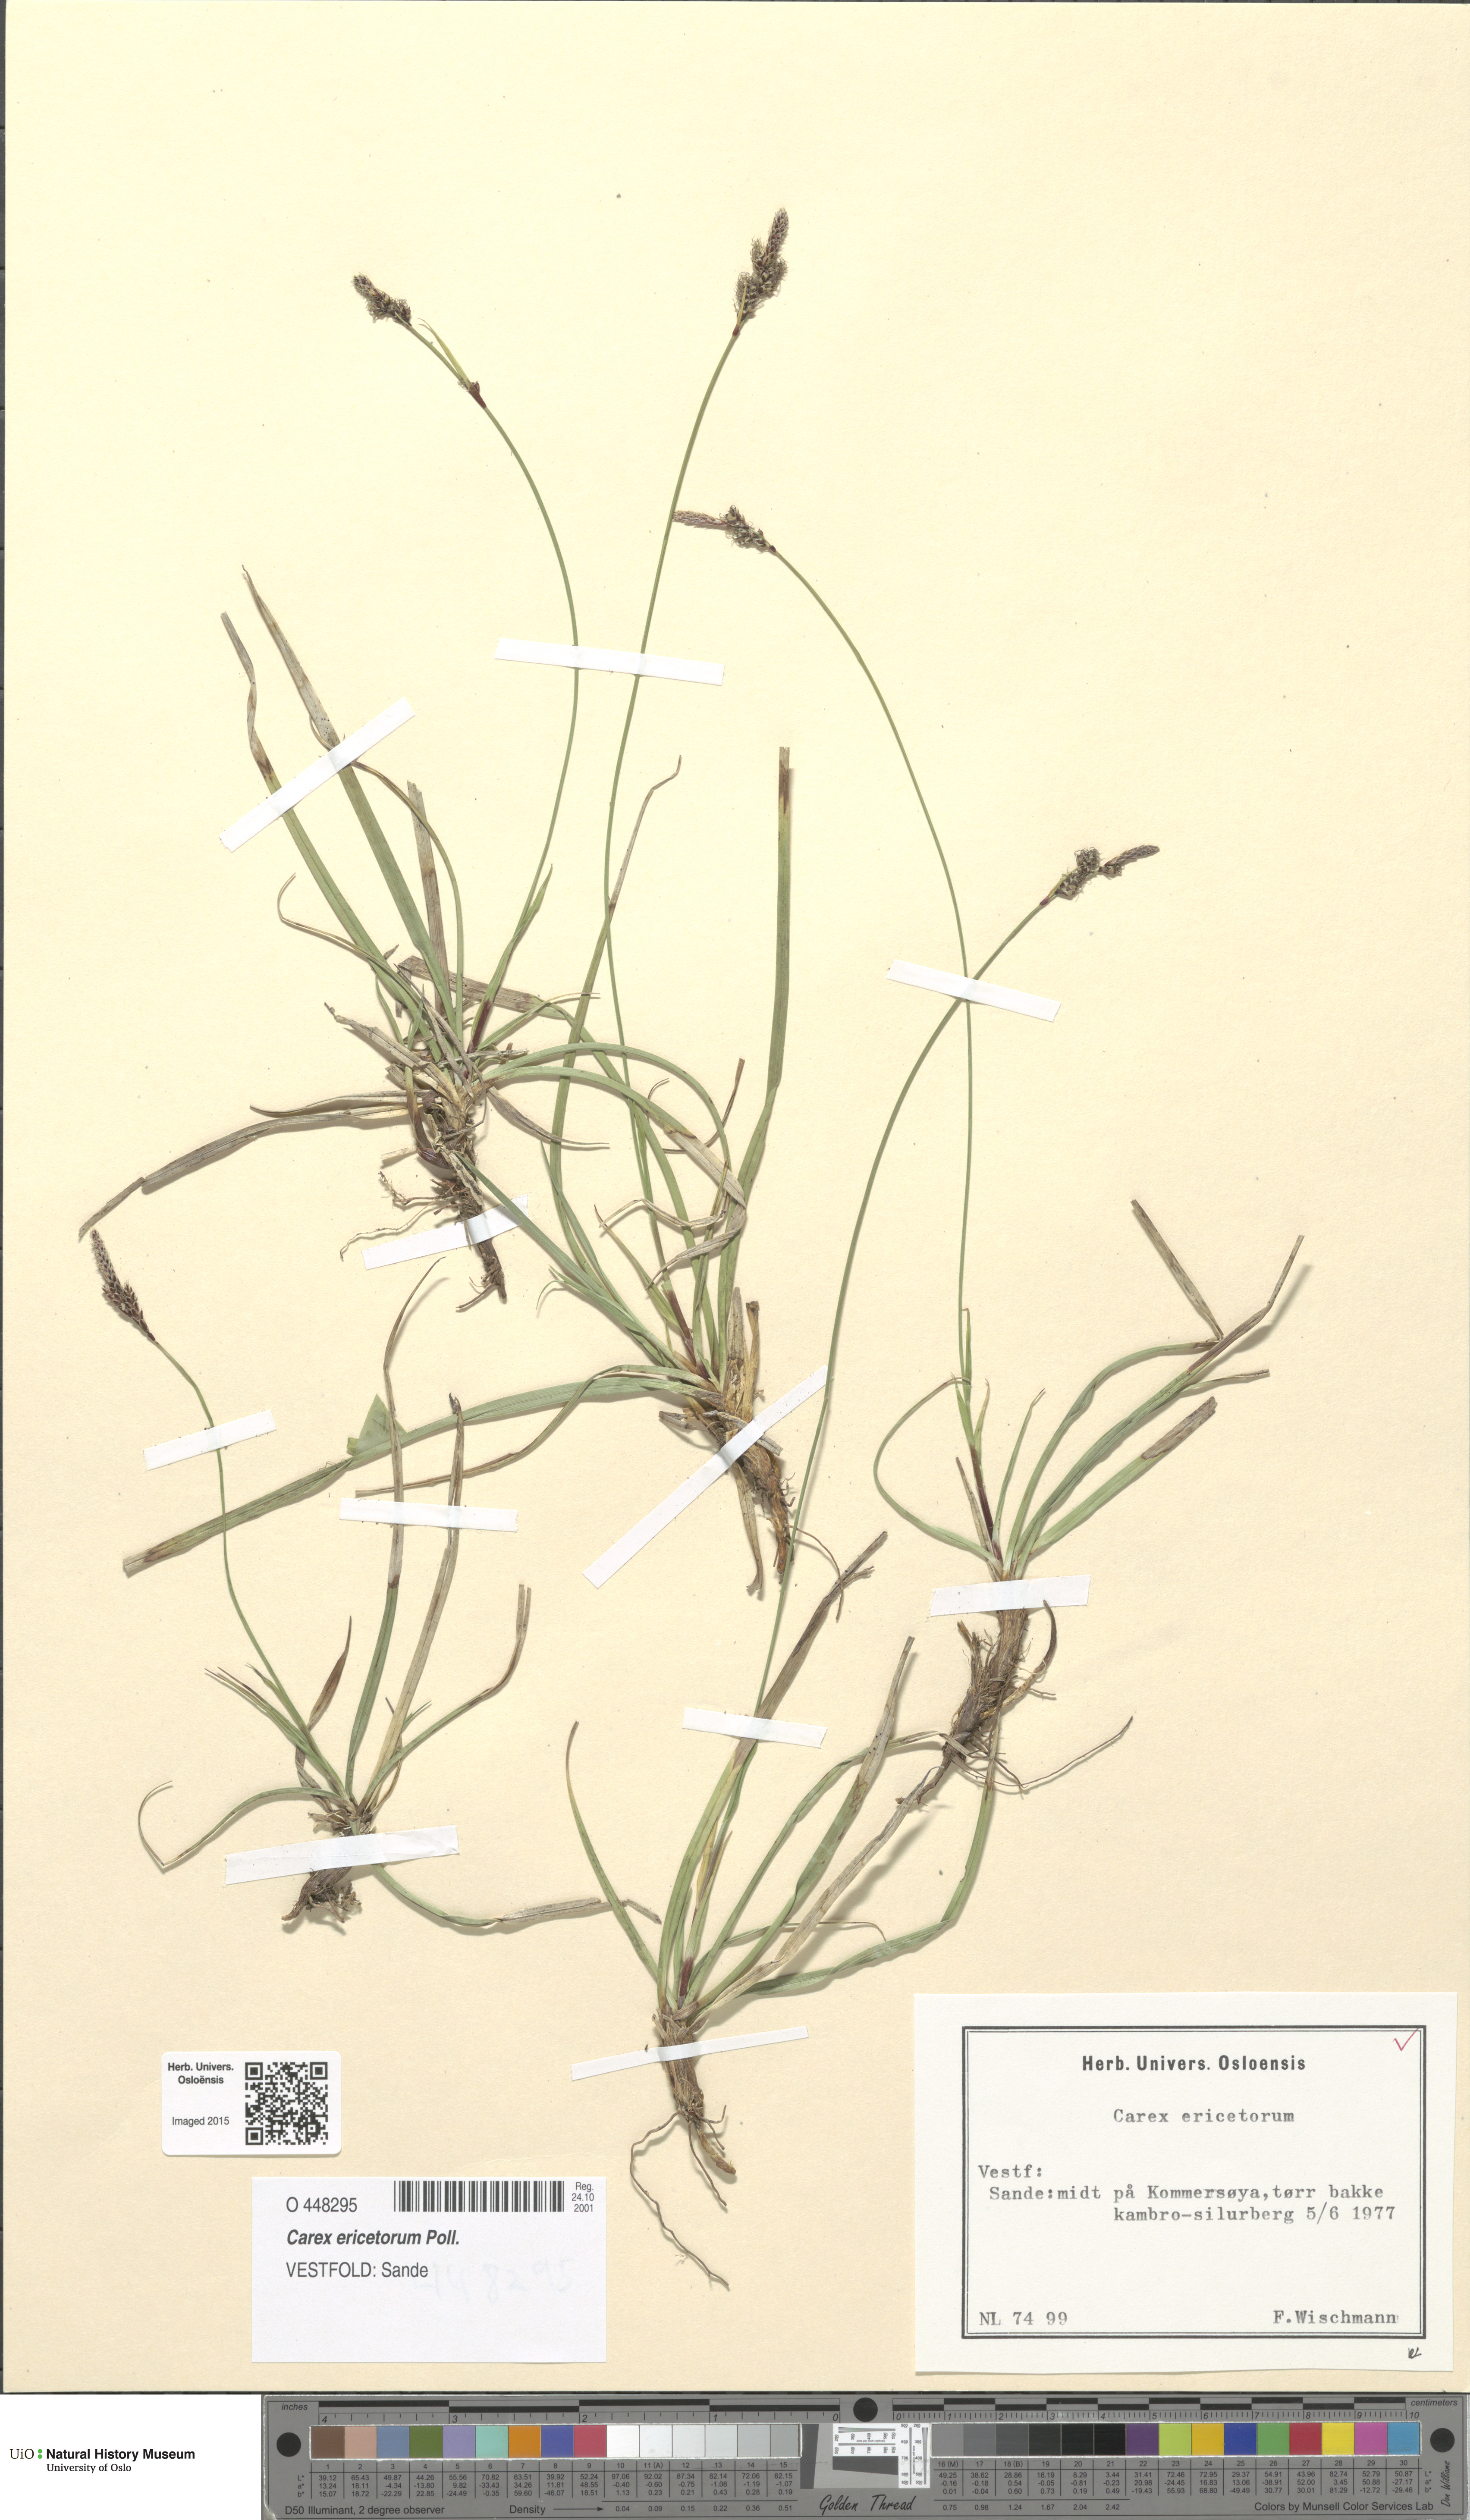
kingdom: Plantae
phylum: Tracheophyta
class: Liliopsida
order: Poales
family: Cyperaceae
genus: Carex
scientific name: Carex ericetorum
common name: Rare spring-sedge
